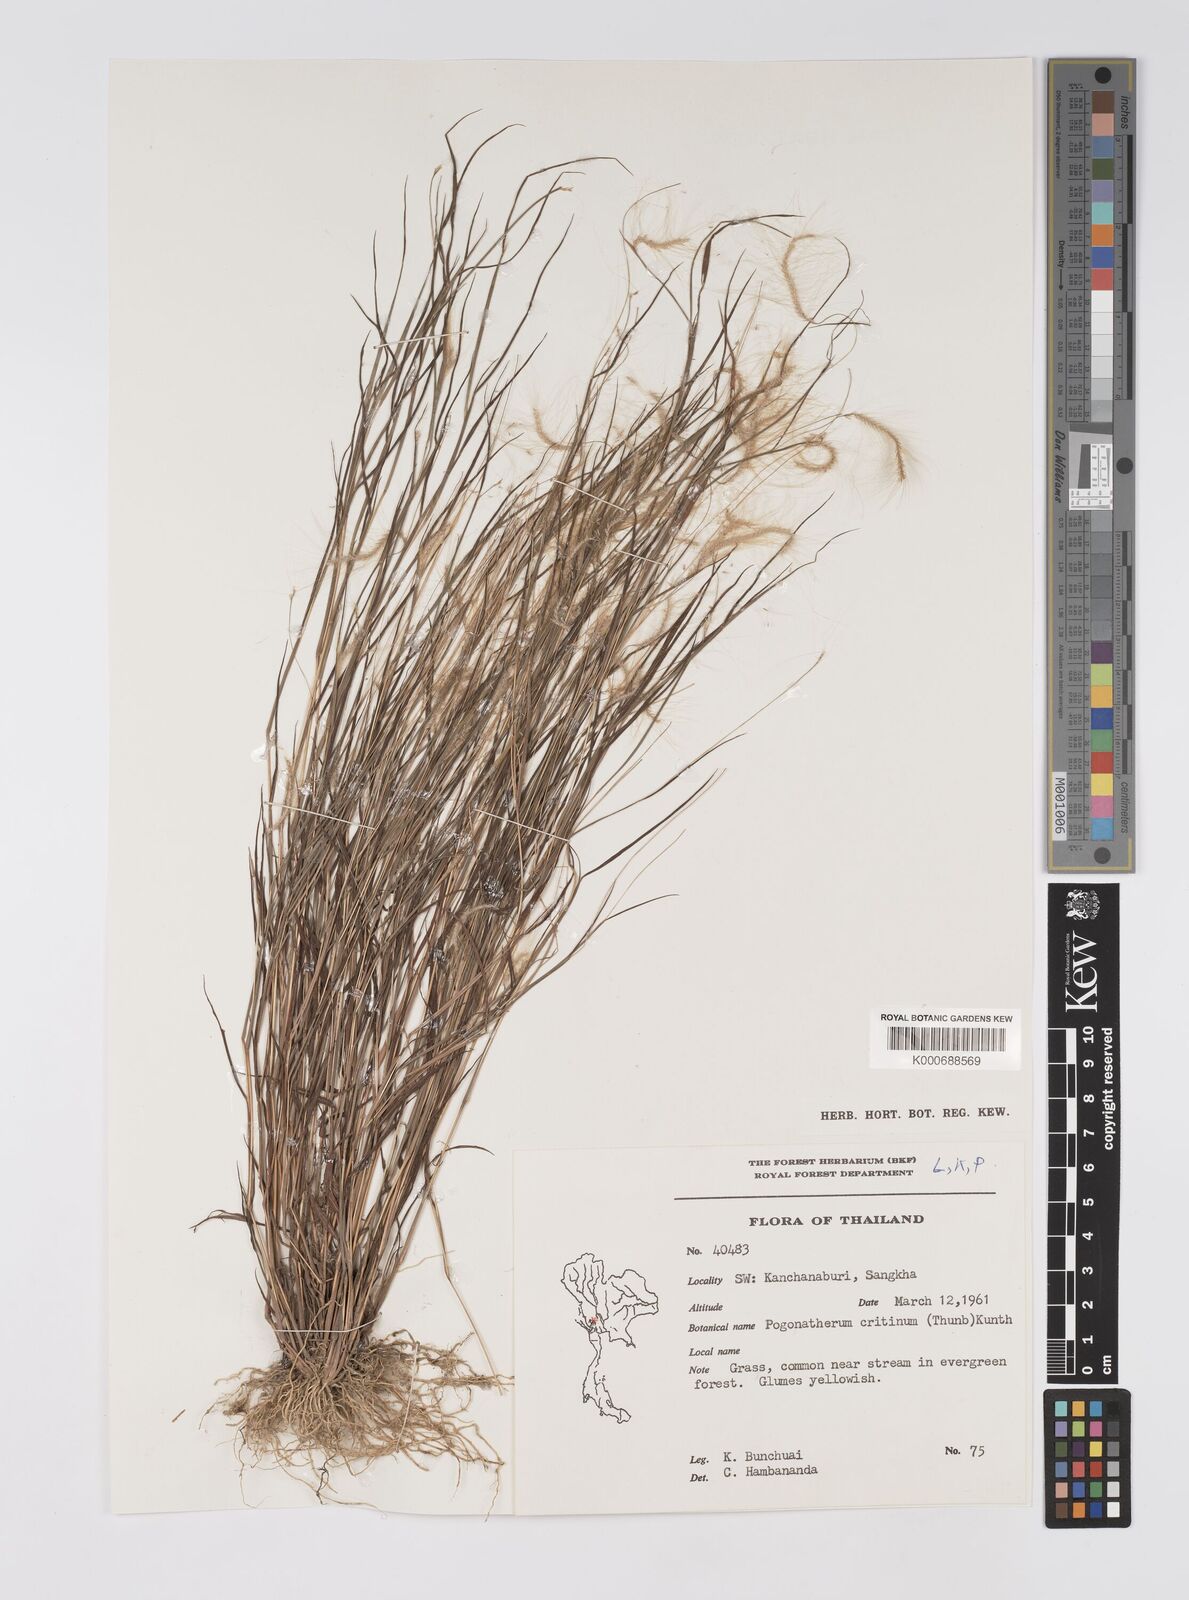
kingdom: Plantae
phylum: Tracheophyta
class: Liliopsida
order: Poales
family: Poaceae
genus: Pogonatherum
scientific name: Pogonatherum crinitum
